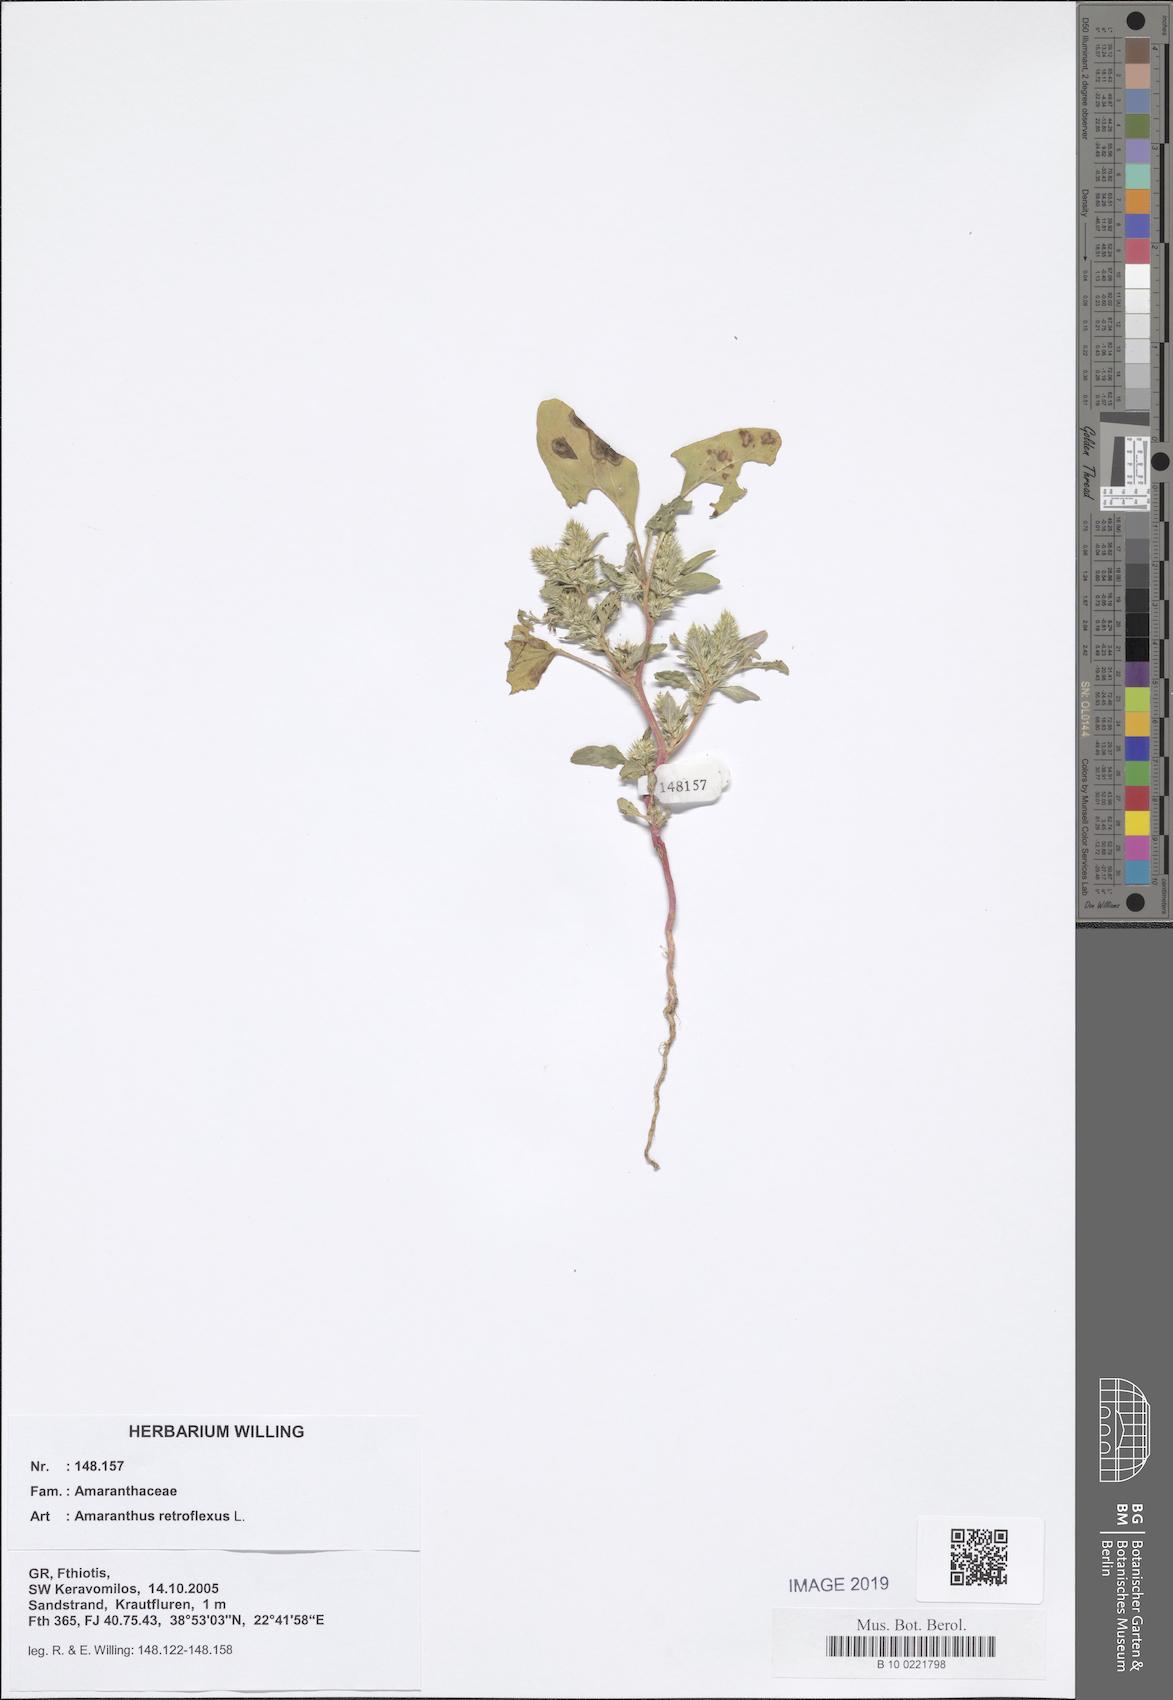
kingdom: Plantae
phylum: Tracheophyta
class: Magnoliopsida
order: Caryophyllales
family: Amaranthaceae
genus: Amaranthus
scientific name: Amaranthus retroflexus
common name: Redroot amaranth
